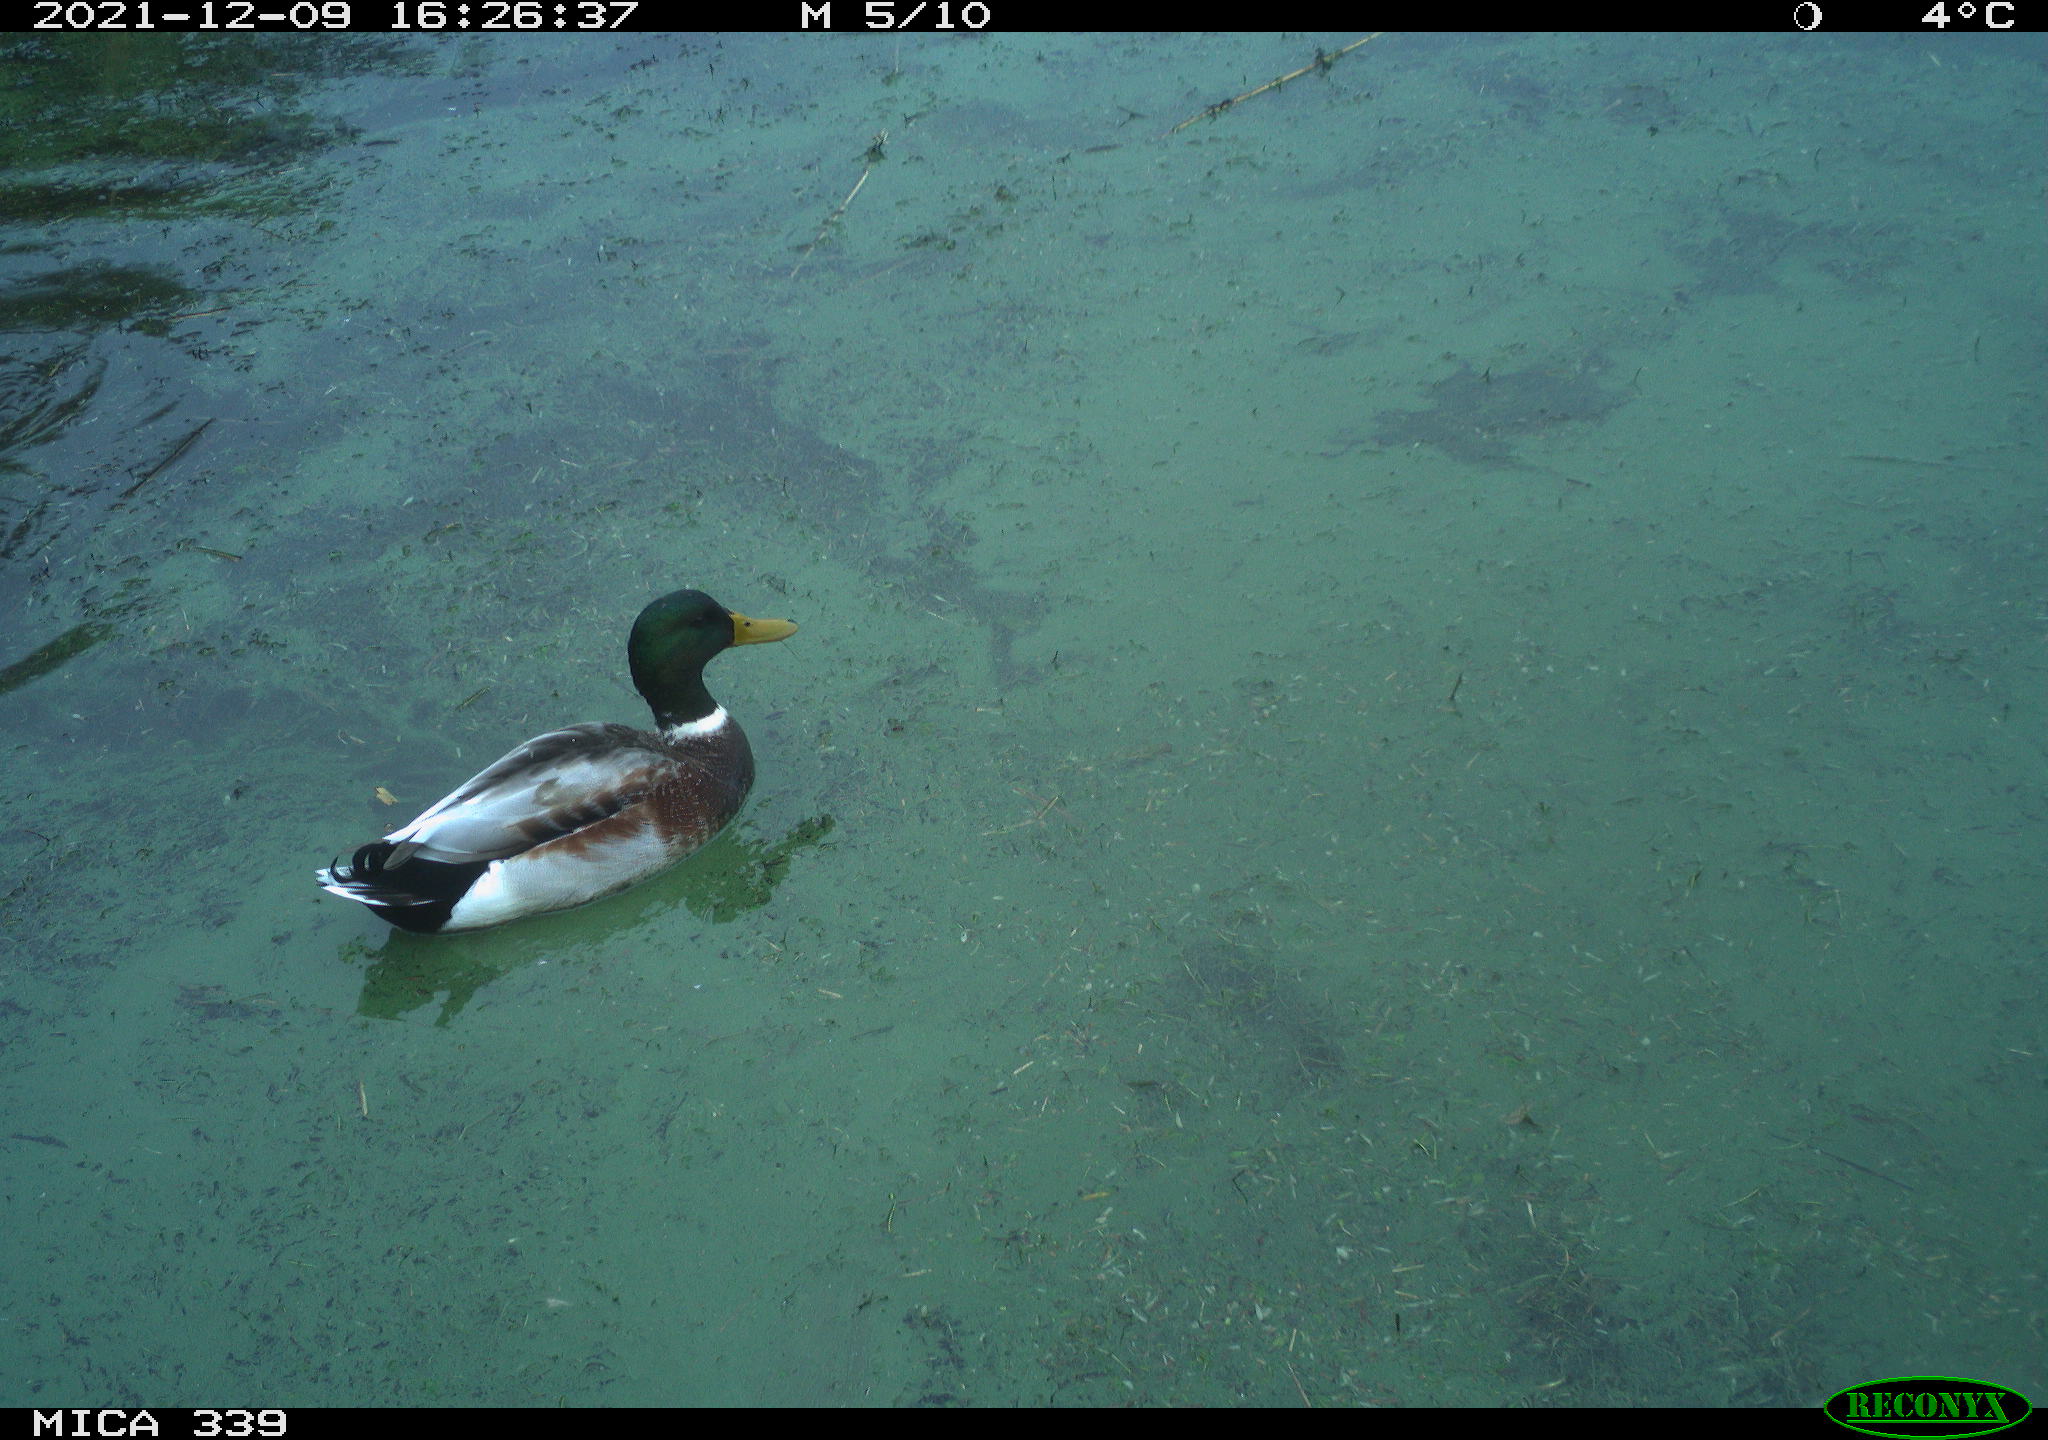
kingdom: Animalia
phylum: Chordata
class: Aves
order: Anseriformes
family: Anatidae
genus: Anas
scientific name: Anas platyrhynchos
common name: Mallard
